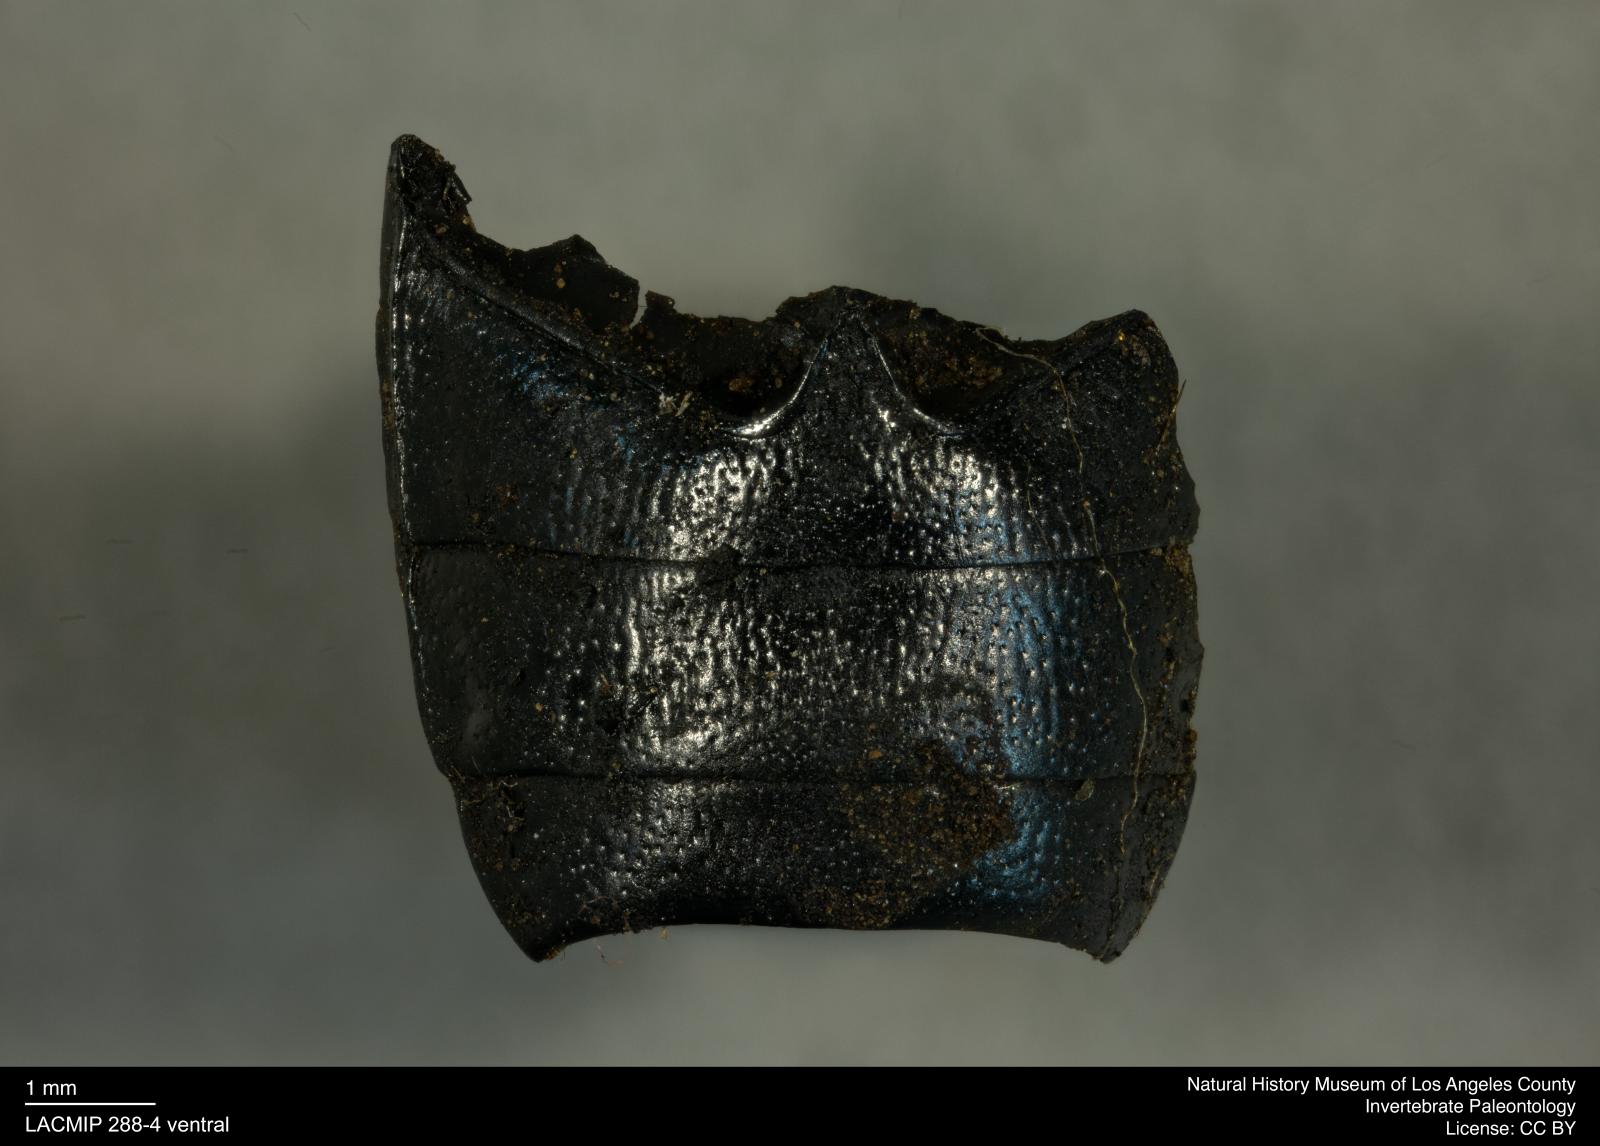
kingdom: Animalia
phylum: Arthropoda
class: Insecta
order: Coleoptera
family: Tenebrionidae
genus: Coniontis
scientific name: Coniontis abdominalis
